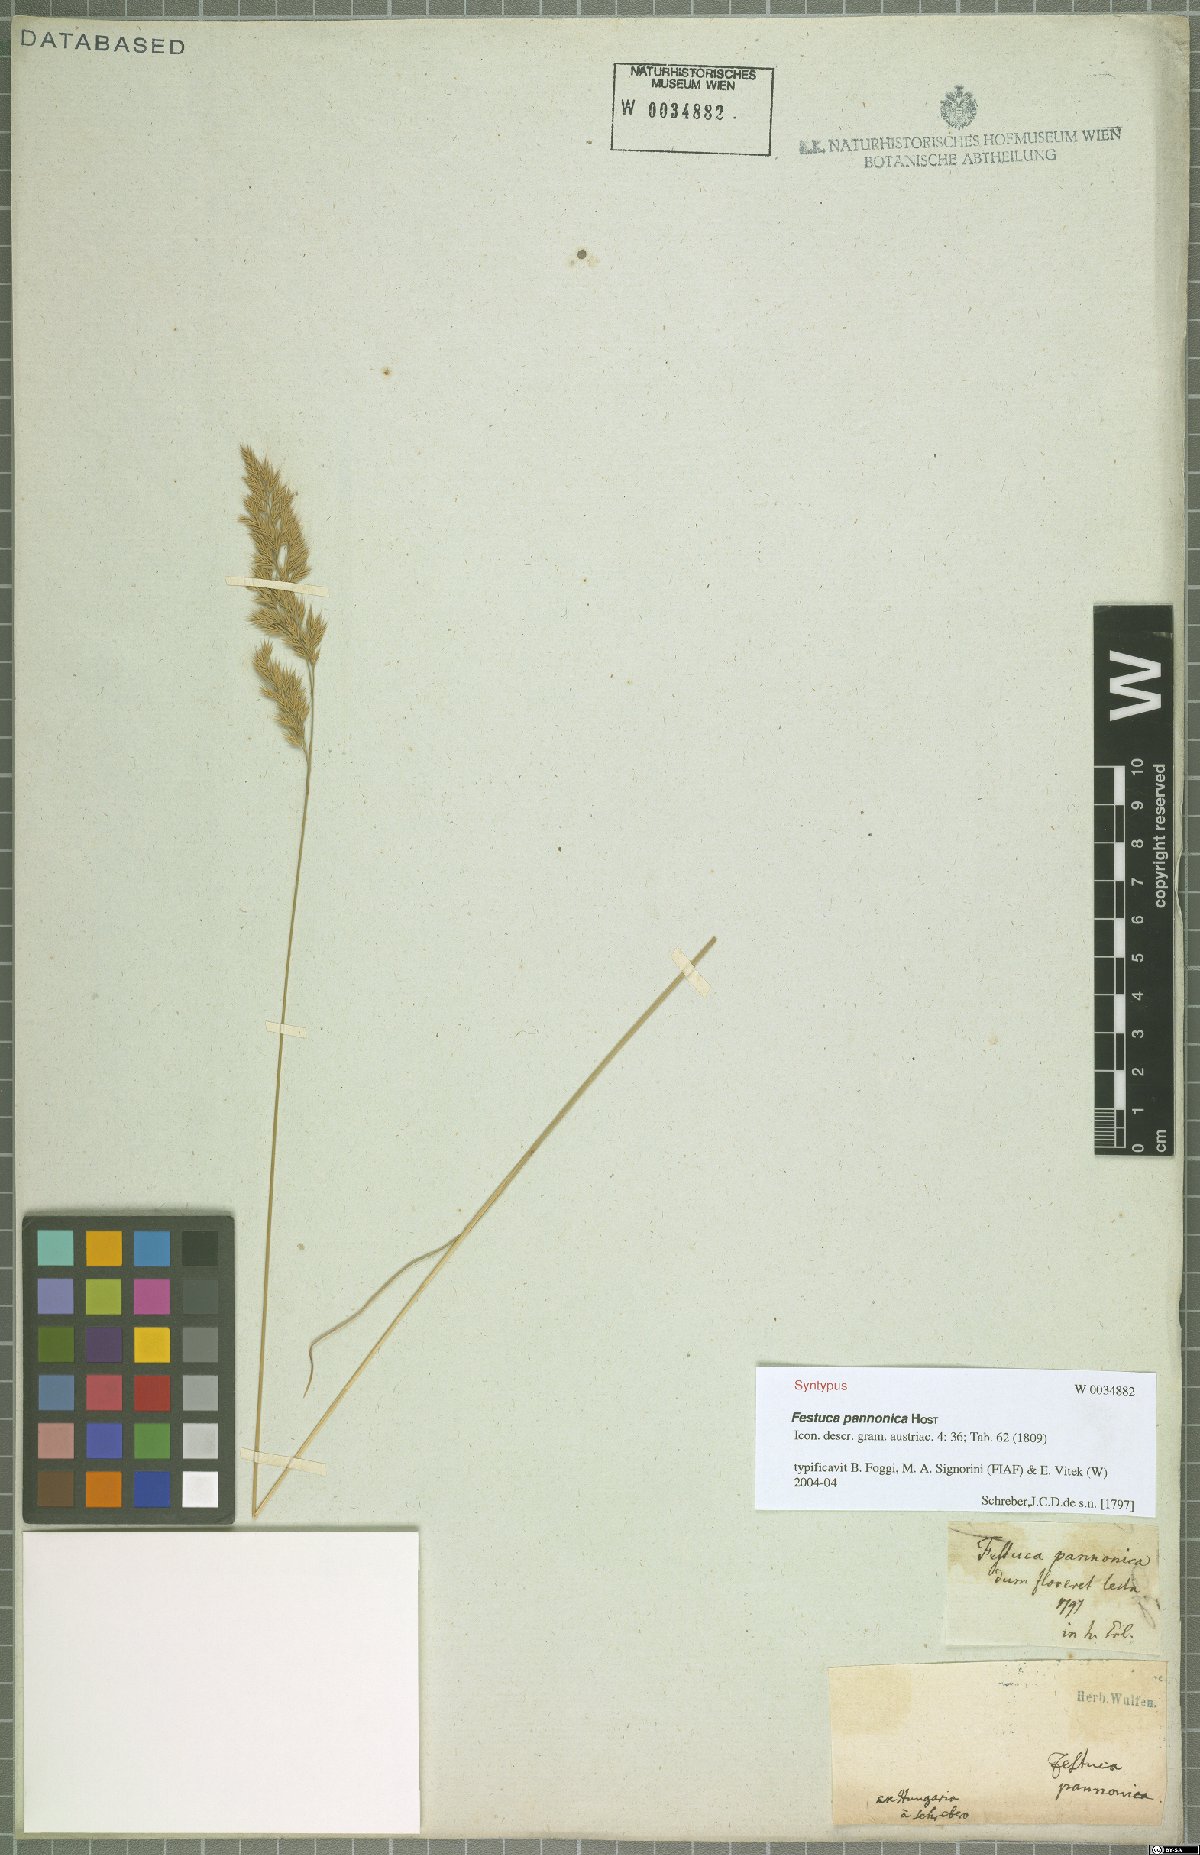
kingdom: Plantae
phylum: Tracheophyta
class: Liliopsida
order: Poales
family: Poaceae
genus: Festuca
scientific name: Festuca valesiaca
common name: Volga fescue
